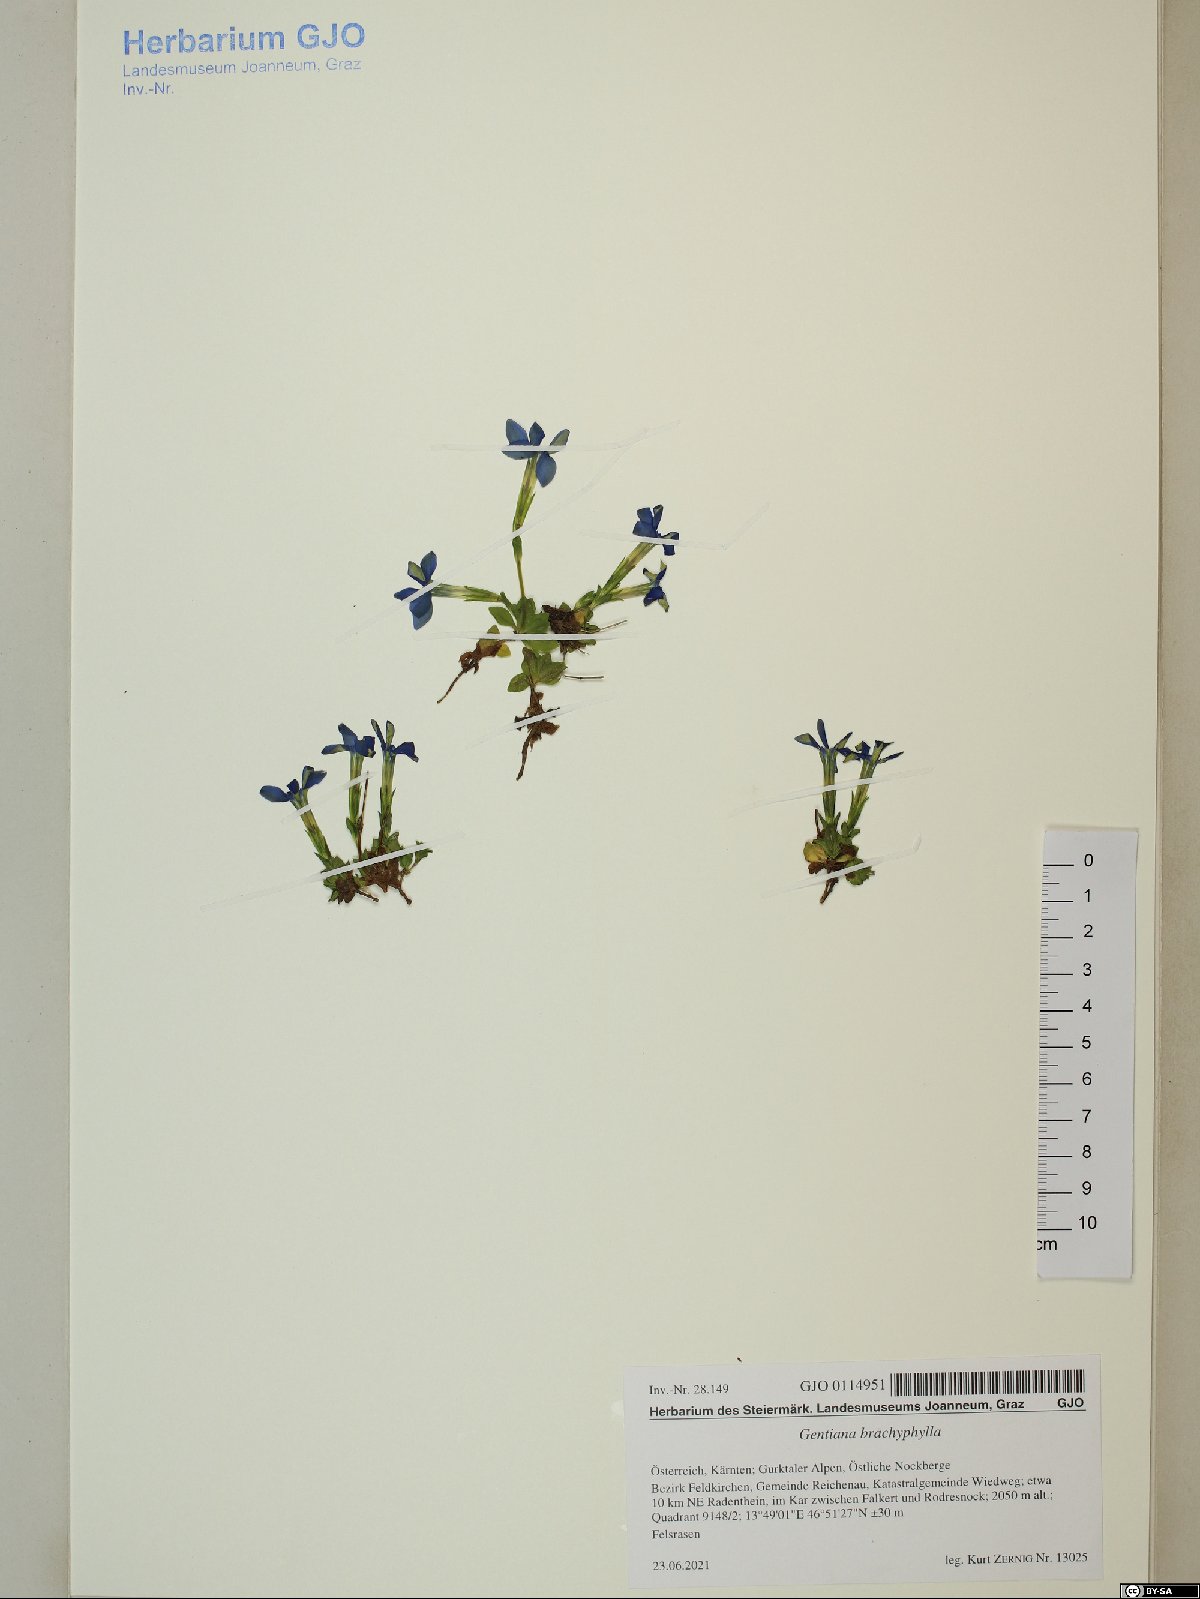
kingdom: Plantae
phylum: Tracheophyta
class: Magnoliopsida
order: Gentianales
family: Gentianaceae
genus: Gentiana
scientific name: Gentiana brachyphylla
